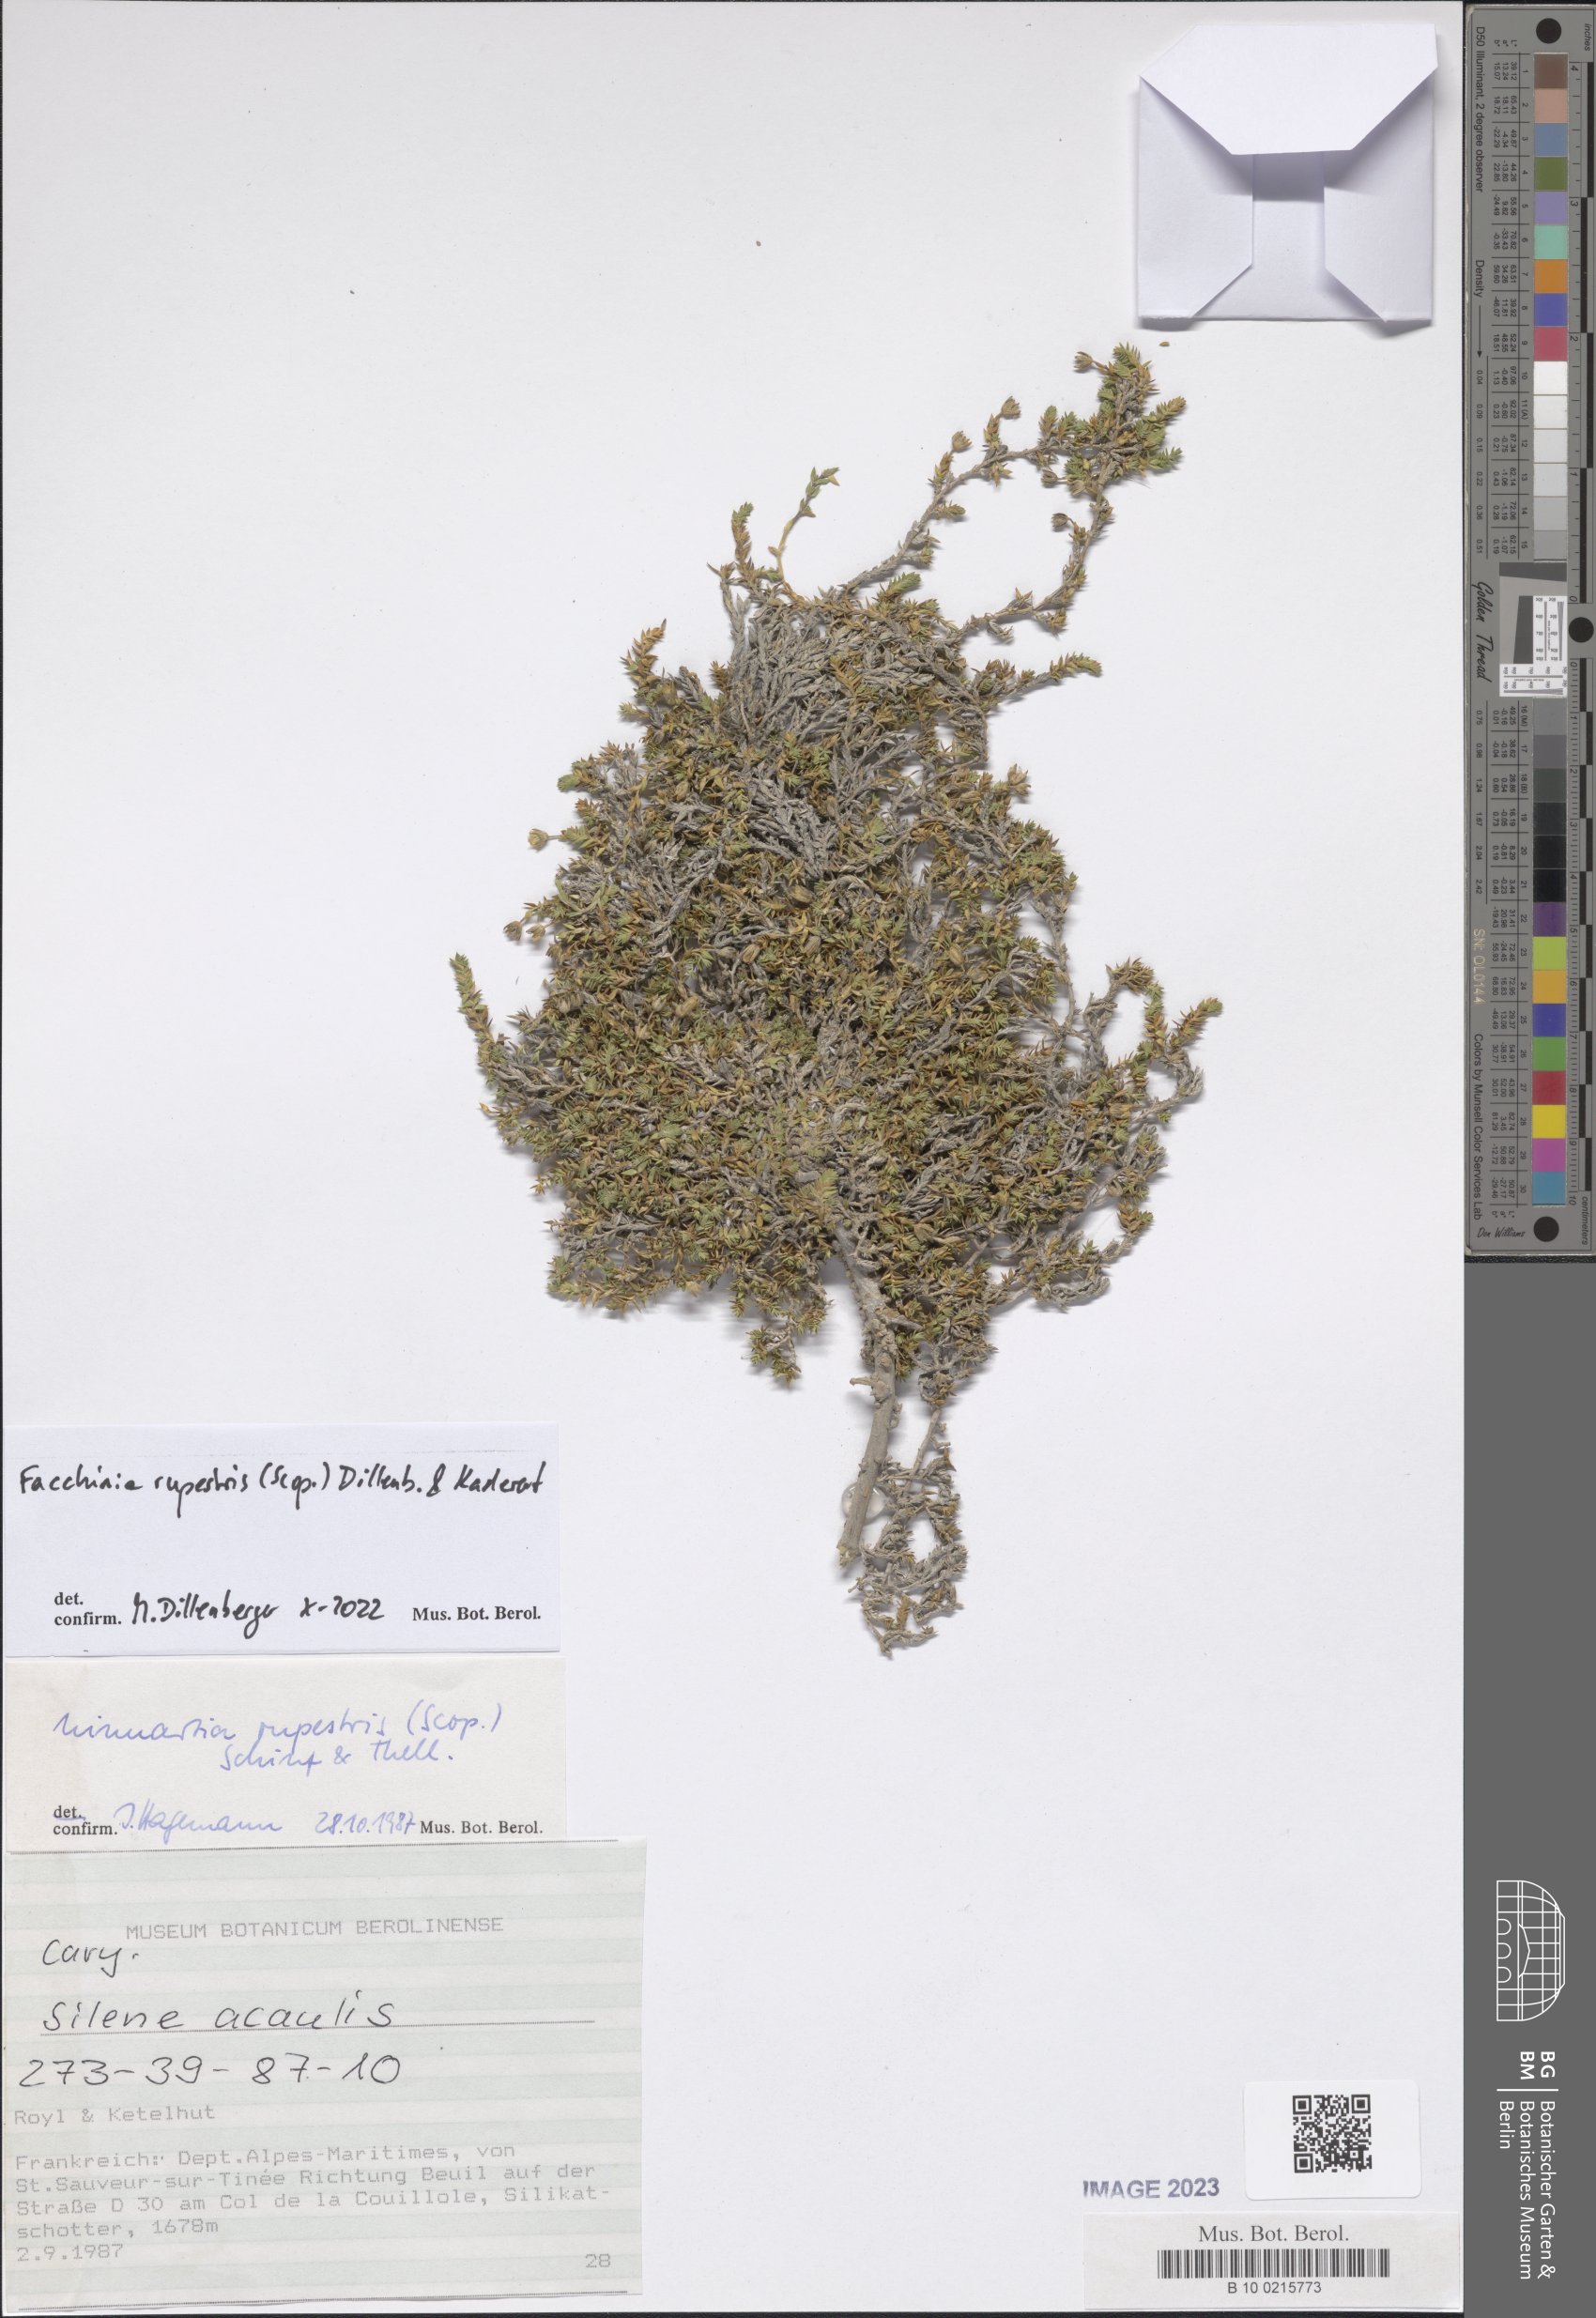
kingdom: Plantae
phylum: Tracheophyta
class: Magnoliopsida
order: Caryophyllales
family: Caryophyllaceae
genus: Facchinia
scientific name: Facchinia rupestris
